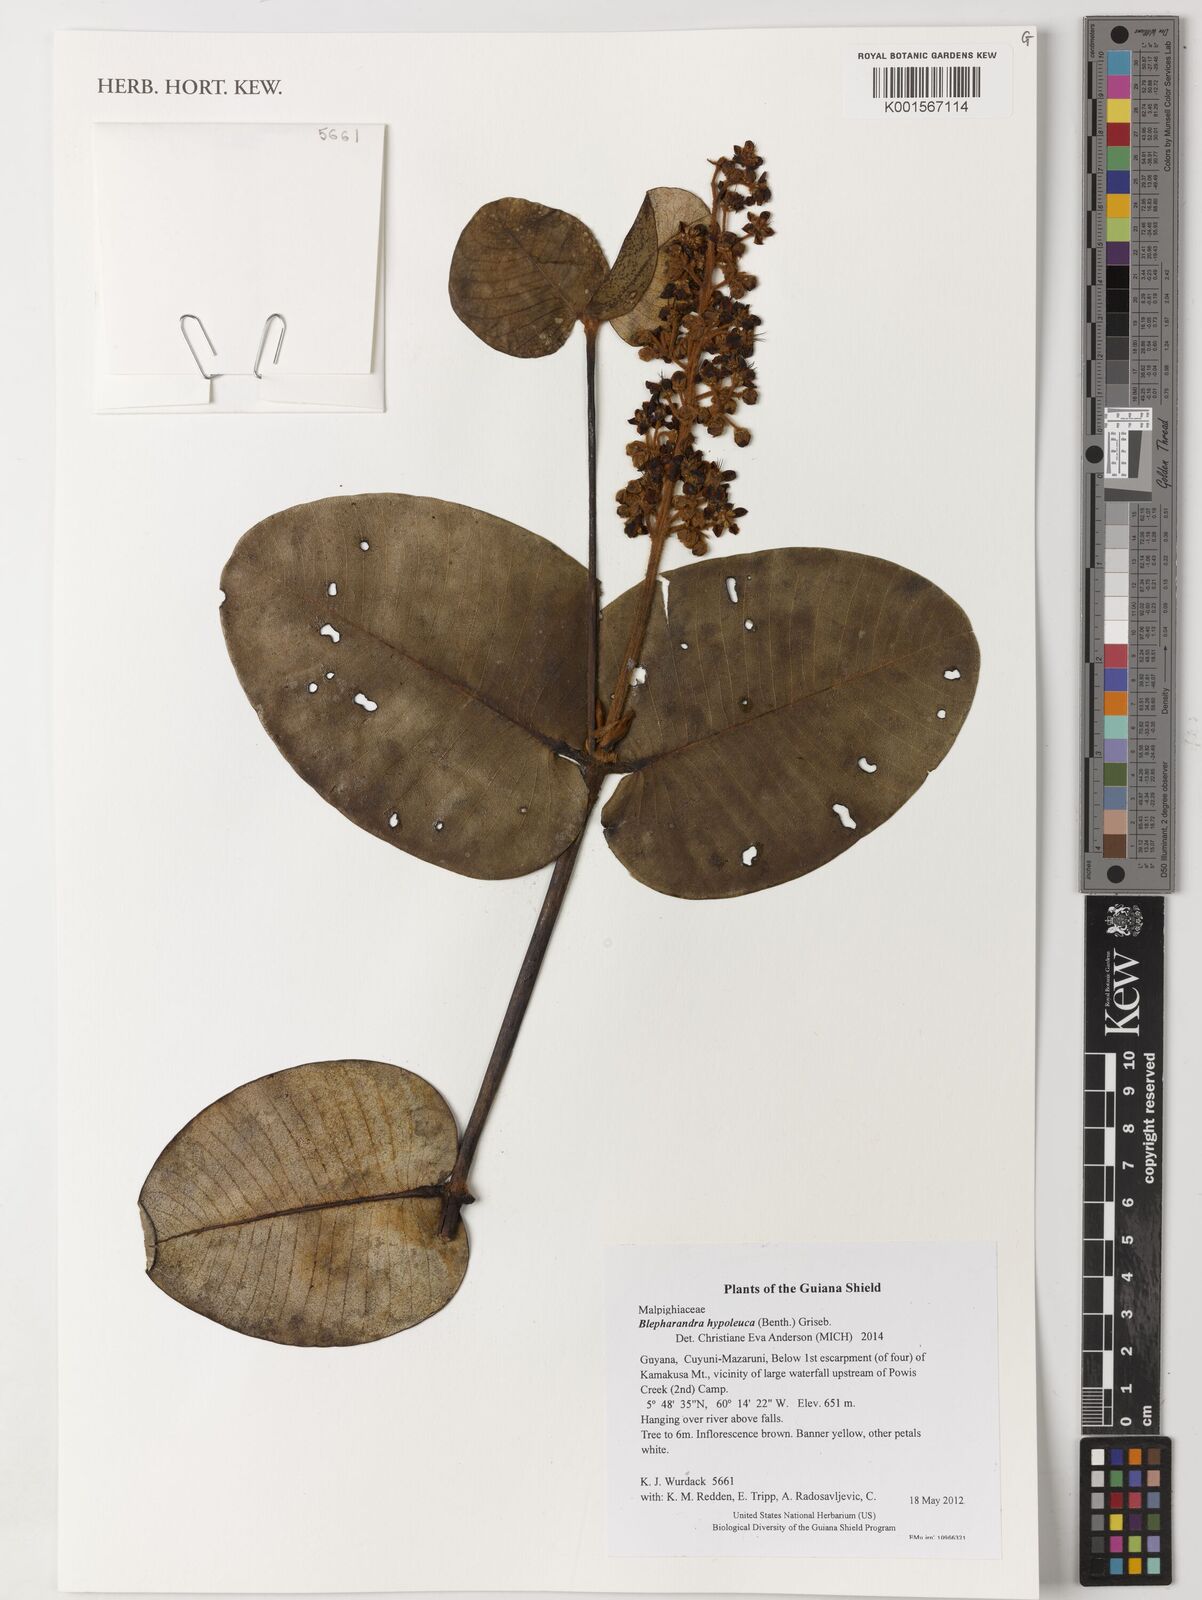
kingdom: Plantae
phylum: Tracheophyta
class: Magnoliopsida
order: Malpighiales
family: Malpighiaceae
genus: Blepharandra
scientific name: Blepharandra hypoleuca
